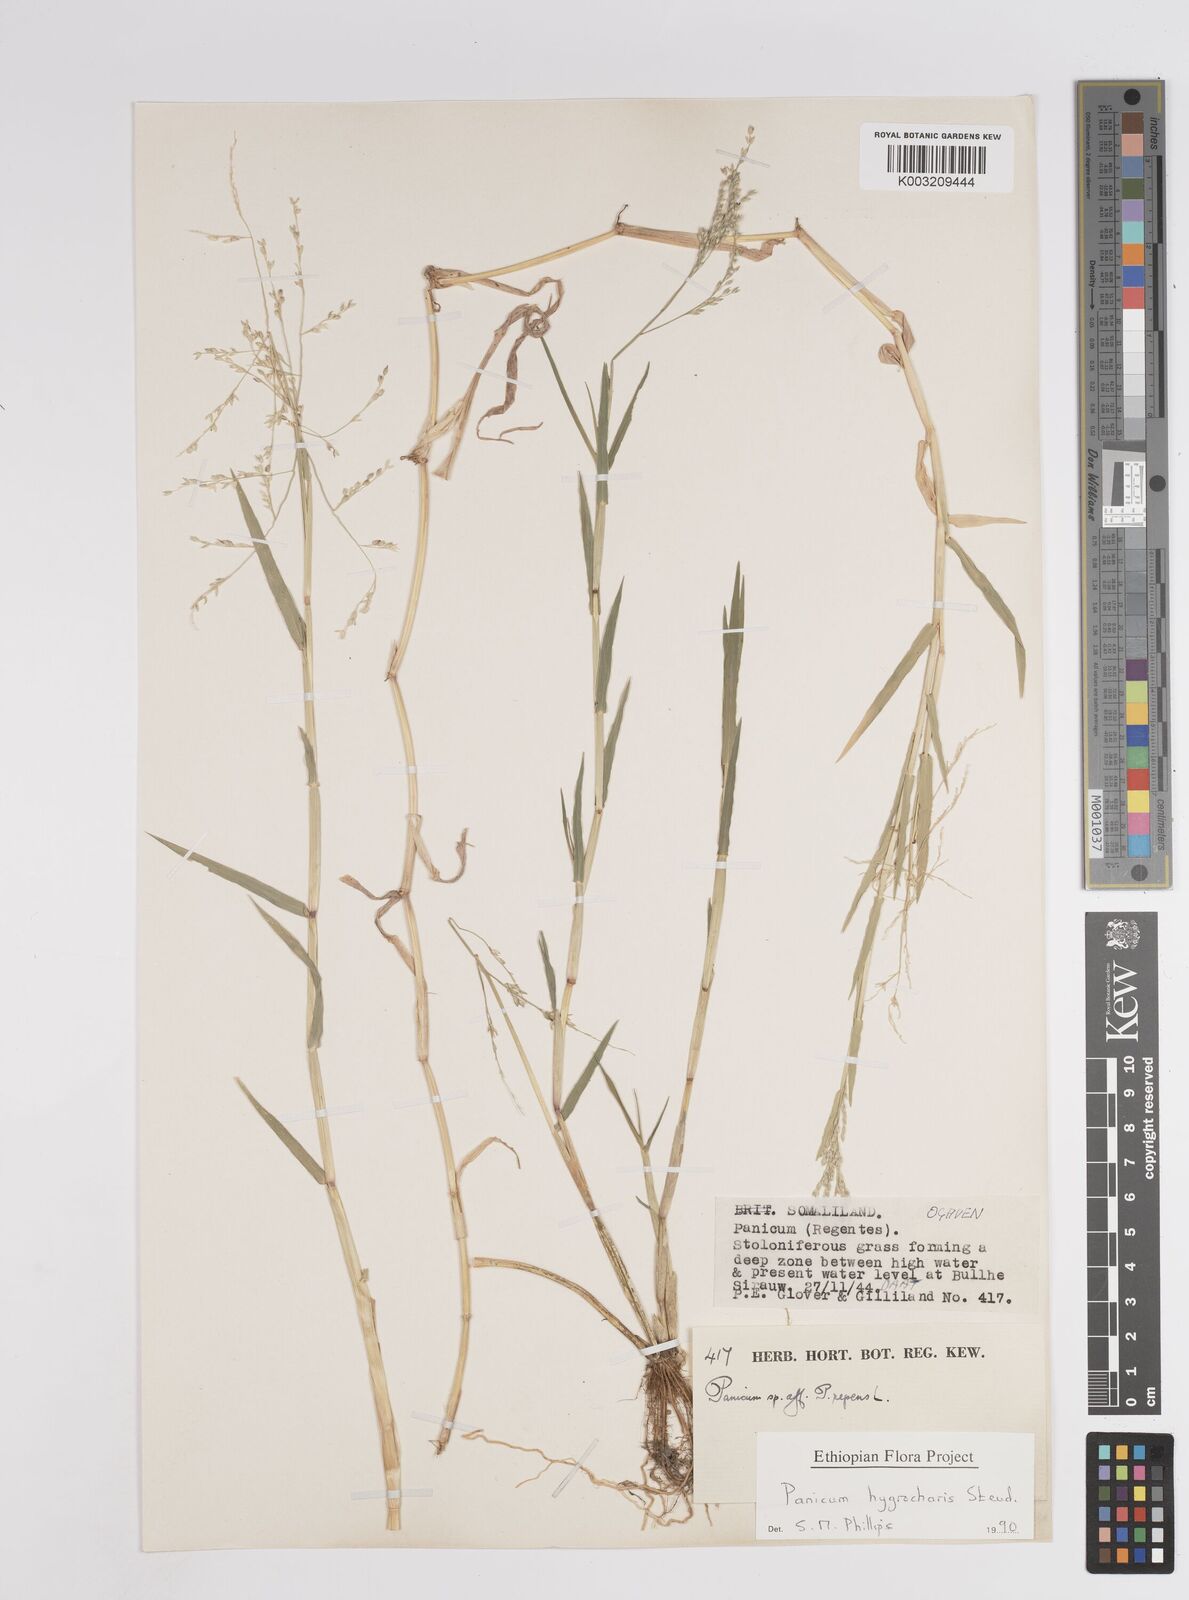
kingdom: Plantae
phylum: Tracheophyta
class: Liliopsida
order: Poales
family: Poaceae
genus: Panicum
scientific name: Panicum hygrocharis
